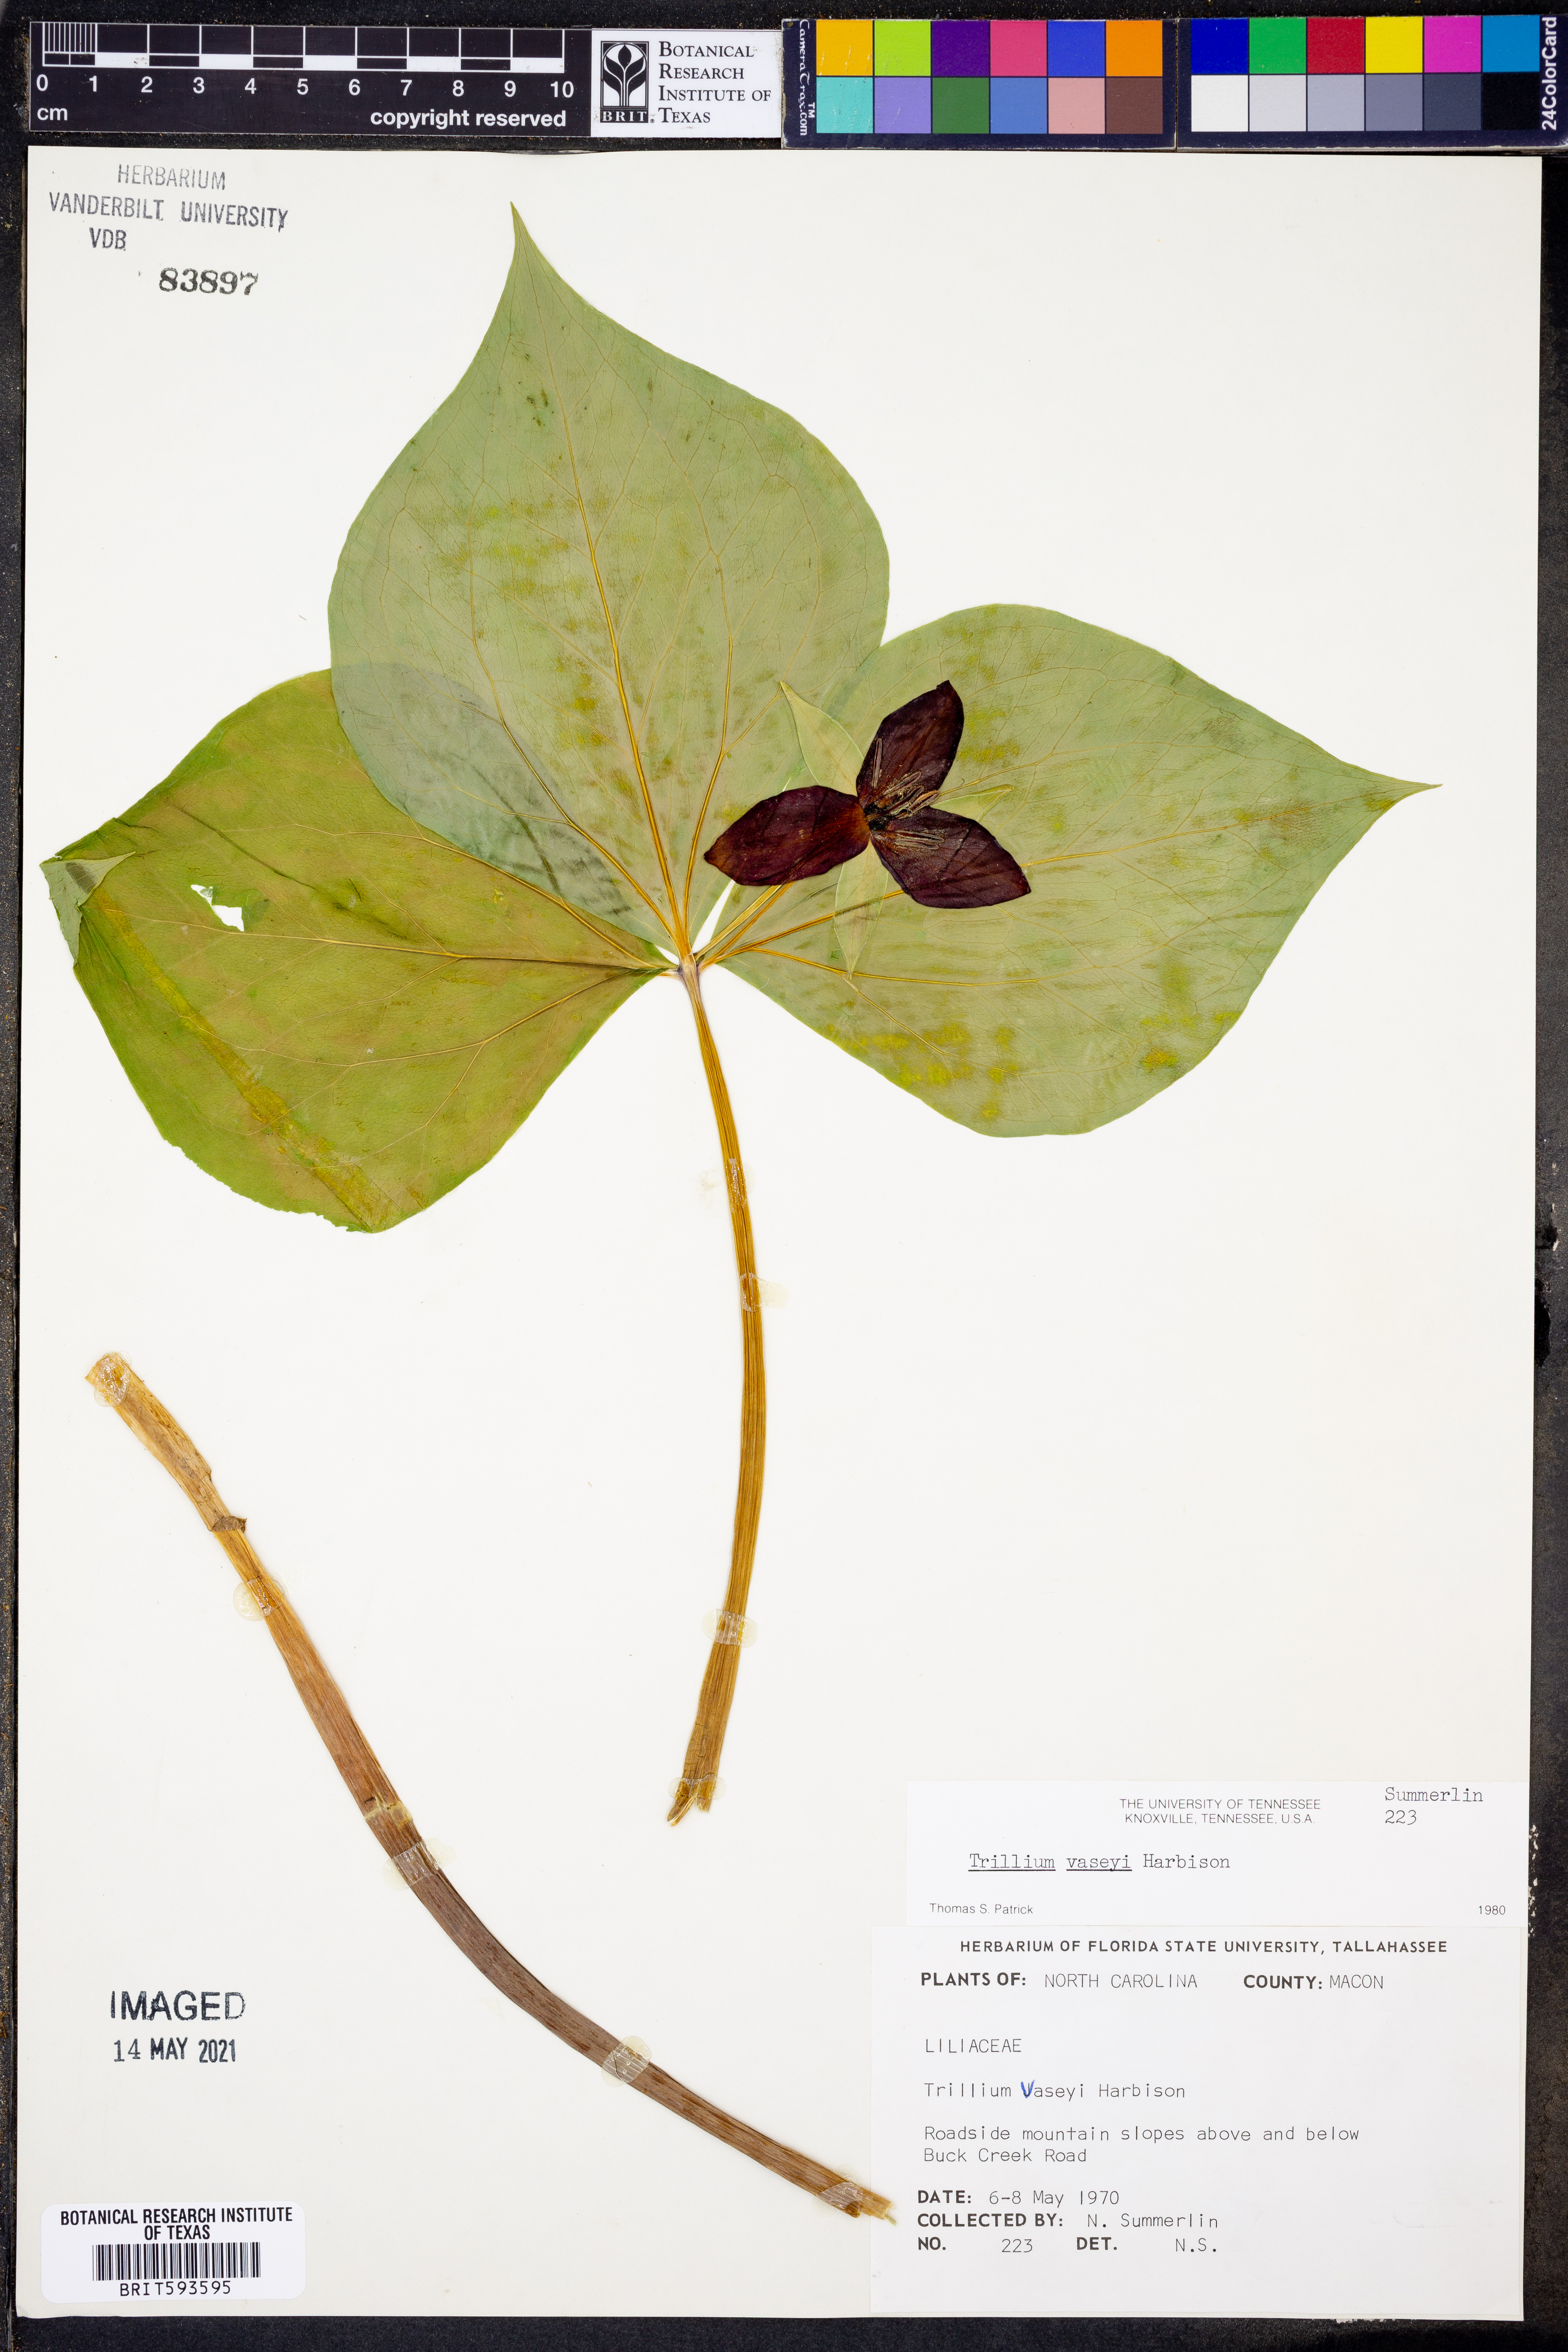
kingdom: Plantae
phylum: Tracheophyta
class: Liliopsida
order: Liliales
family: Melanthiaceae
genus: Trillium
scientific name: Trillium vaseyi
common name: Sweet trillium
